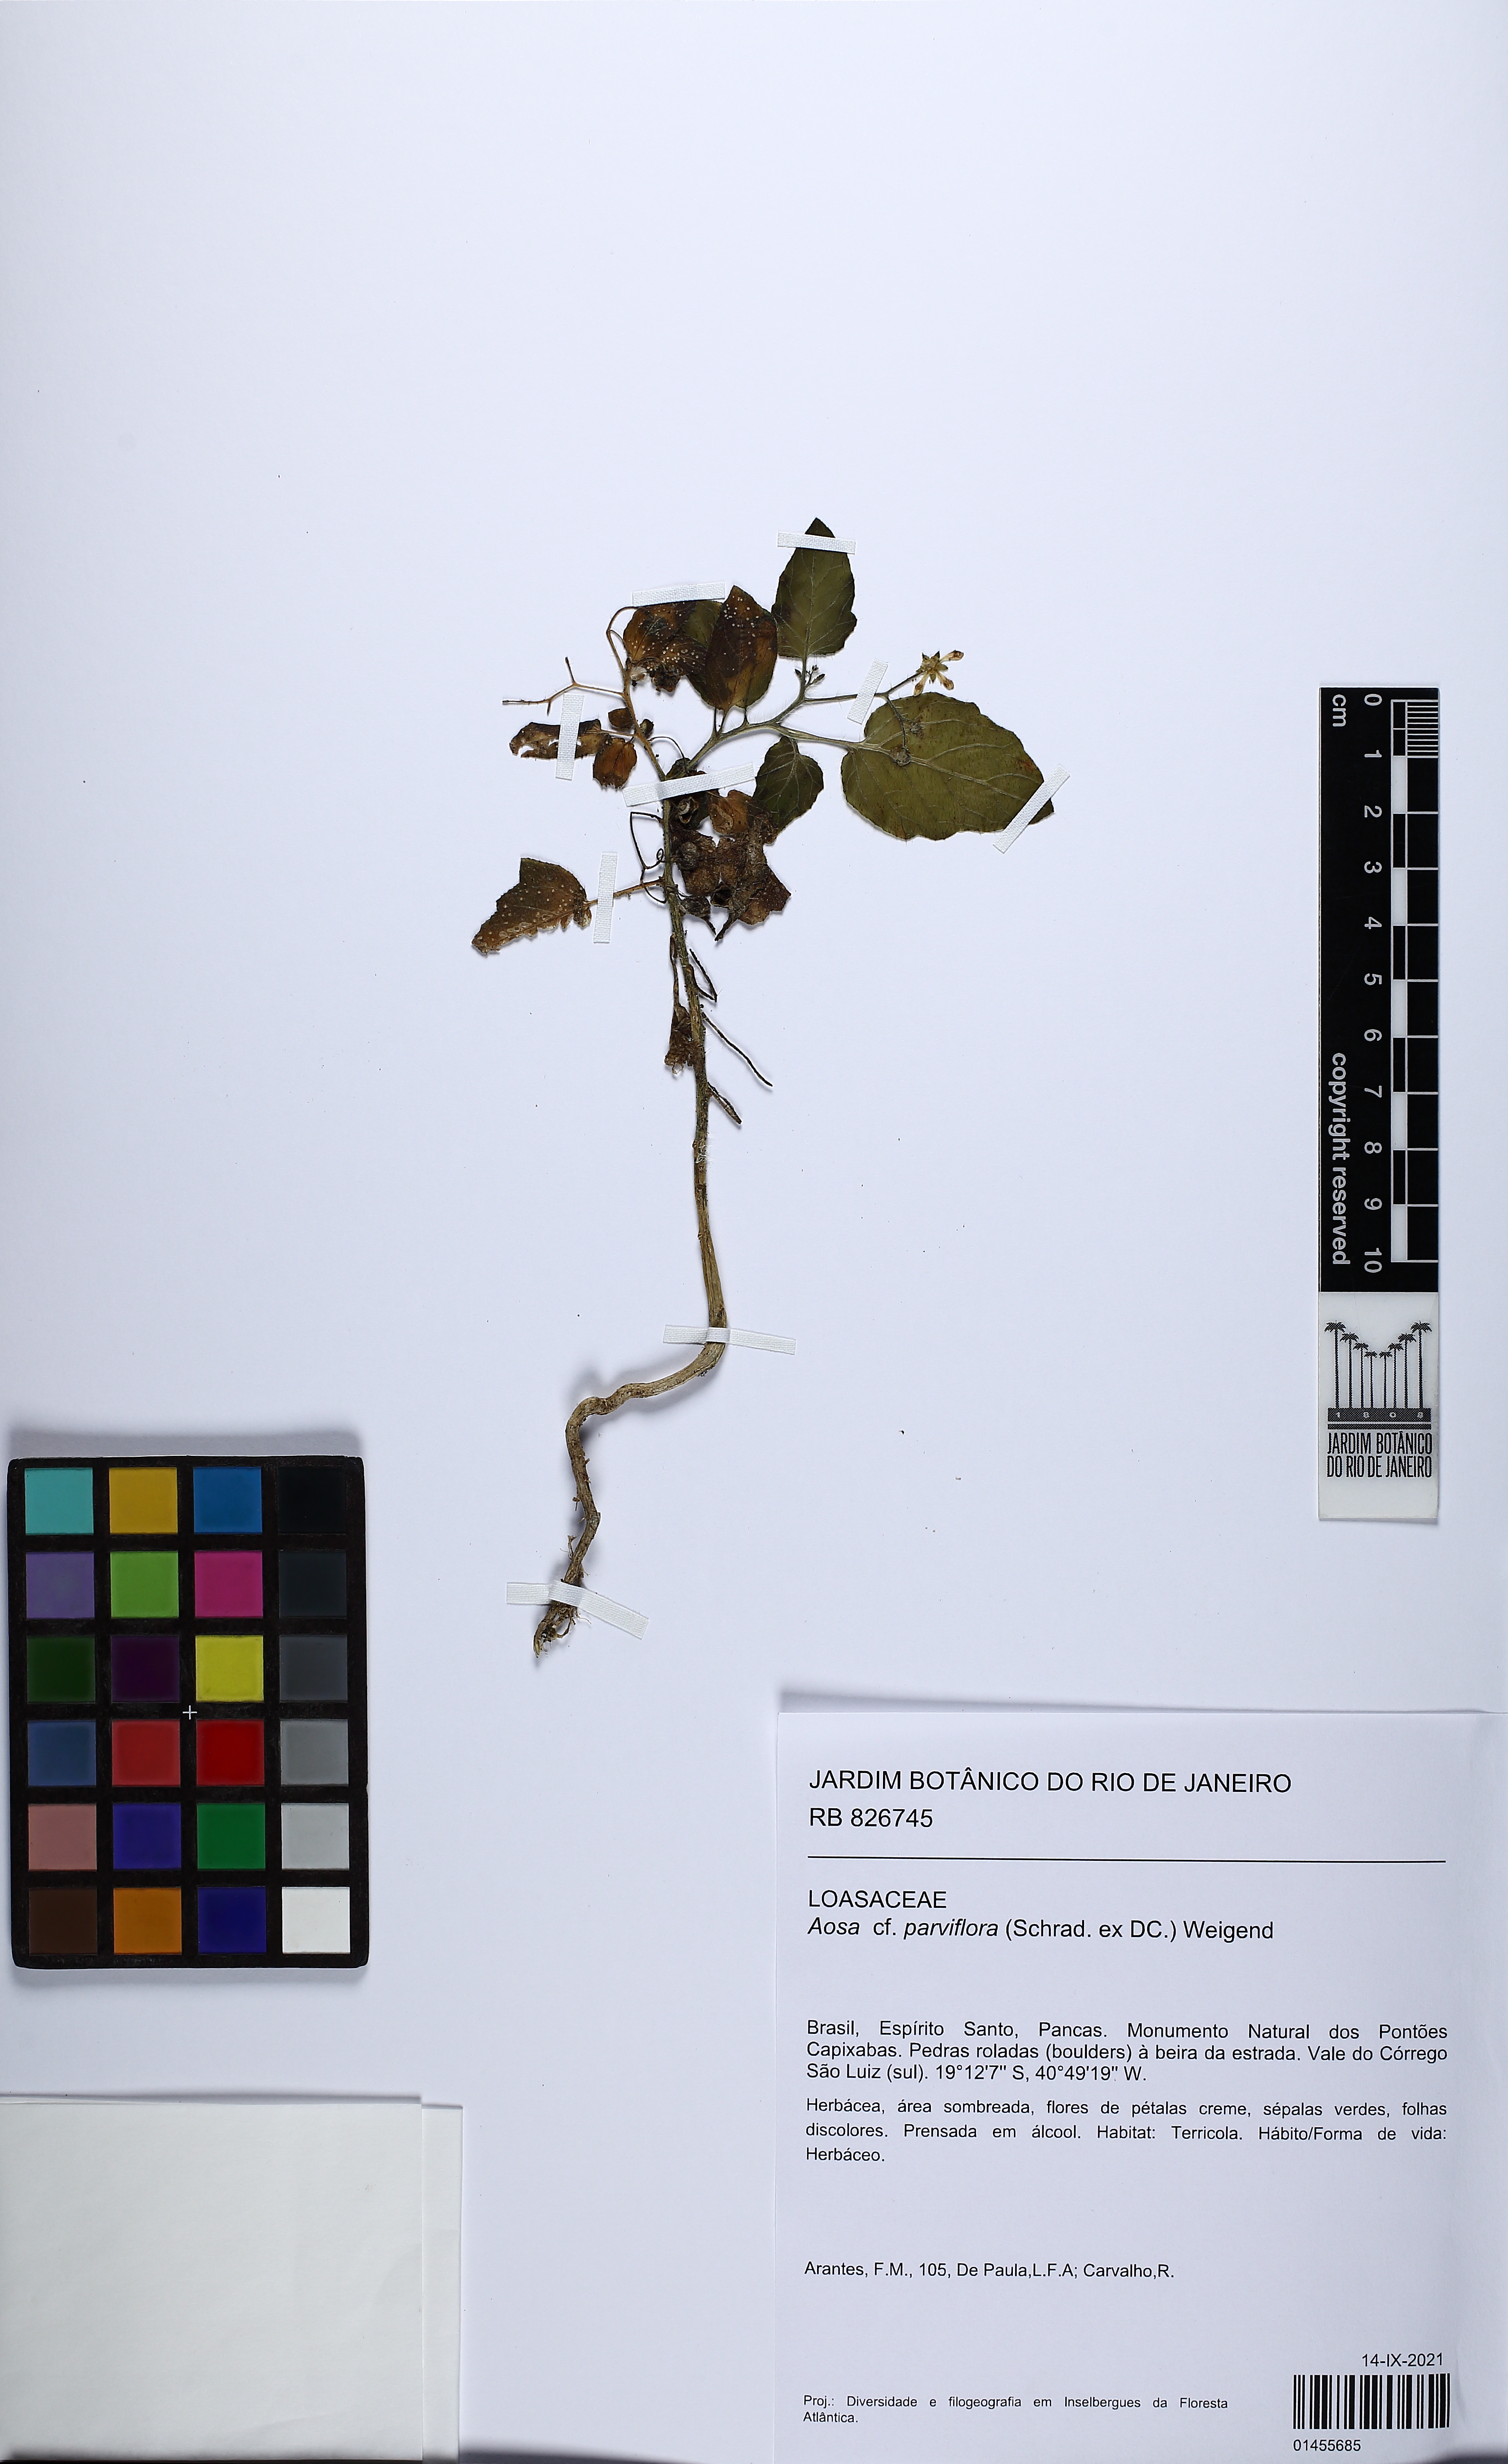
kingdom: Plantae
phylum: Tracheophyta
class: Magnoliopsida
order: Cornales
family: Loasaceae
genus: Aosa
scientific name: Aosa parviflora
